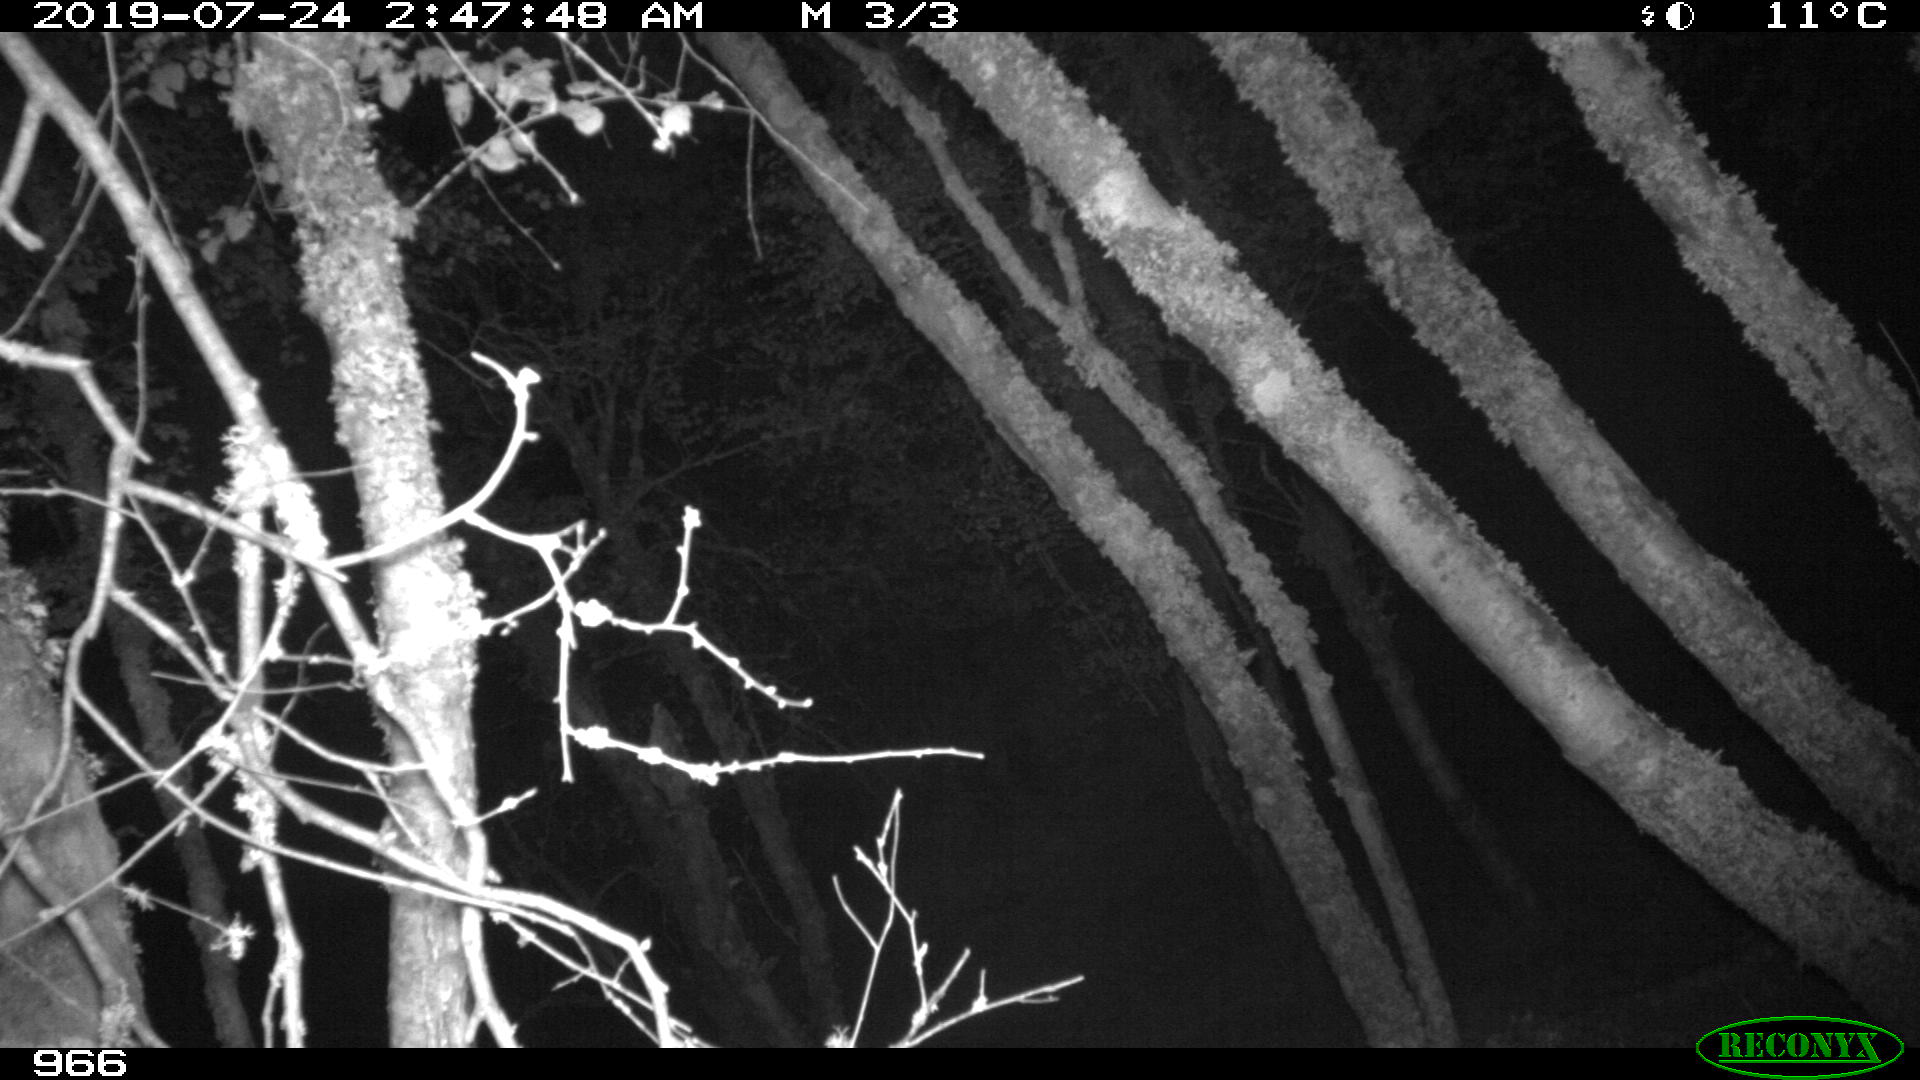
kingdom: Animalia
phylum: Chordata
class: Mammalia
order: Artiodactyla
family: Suidae
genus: Sus
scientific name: Sus scrofa
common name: Wild boar
